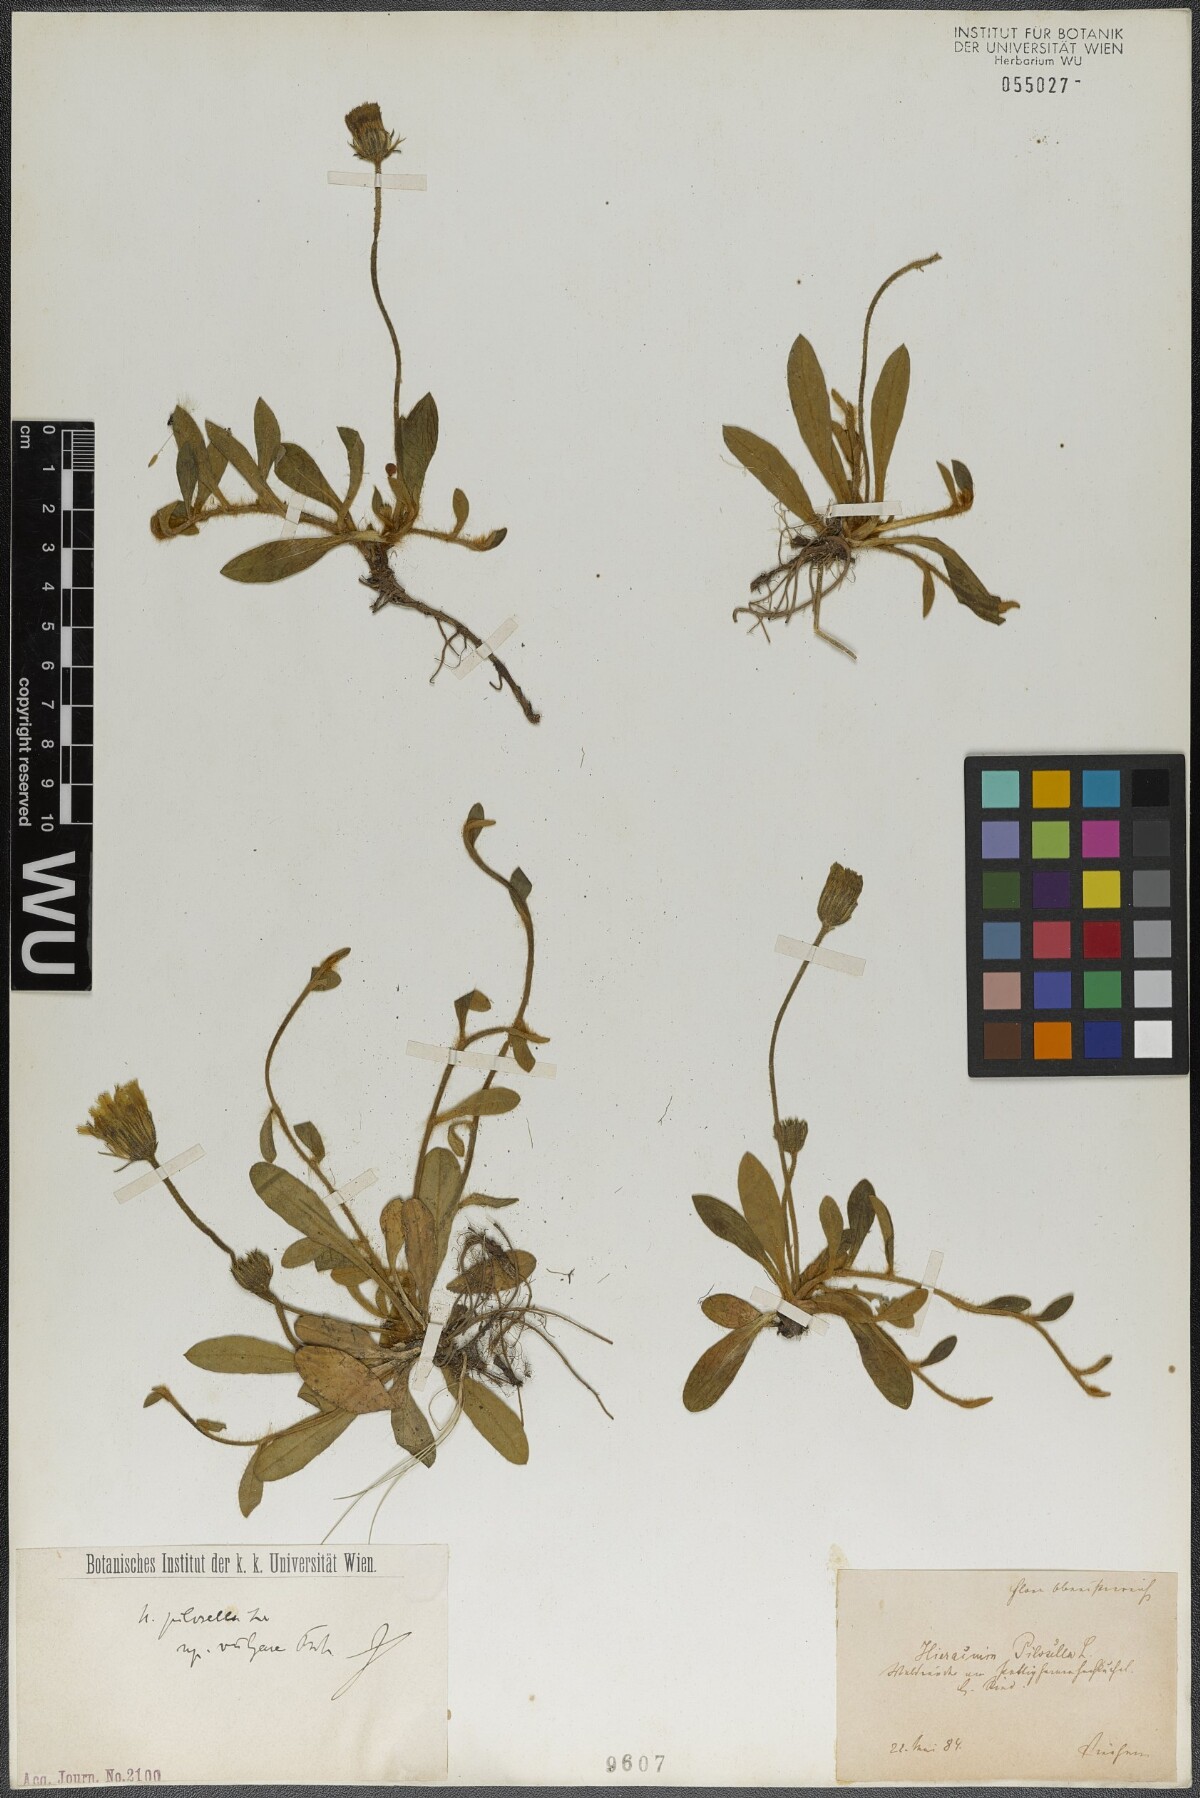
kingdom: Plantae
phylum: Tracheophyta
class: Magnoliopsida
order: Asterales
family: Asteraceae
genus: Pilosella
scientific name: Pilosella officinarum
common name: Mouse-ear hawkweed
